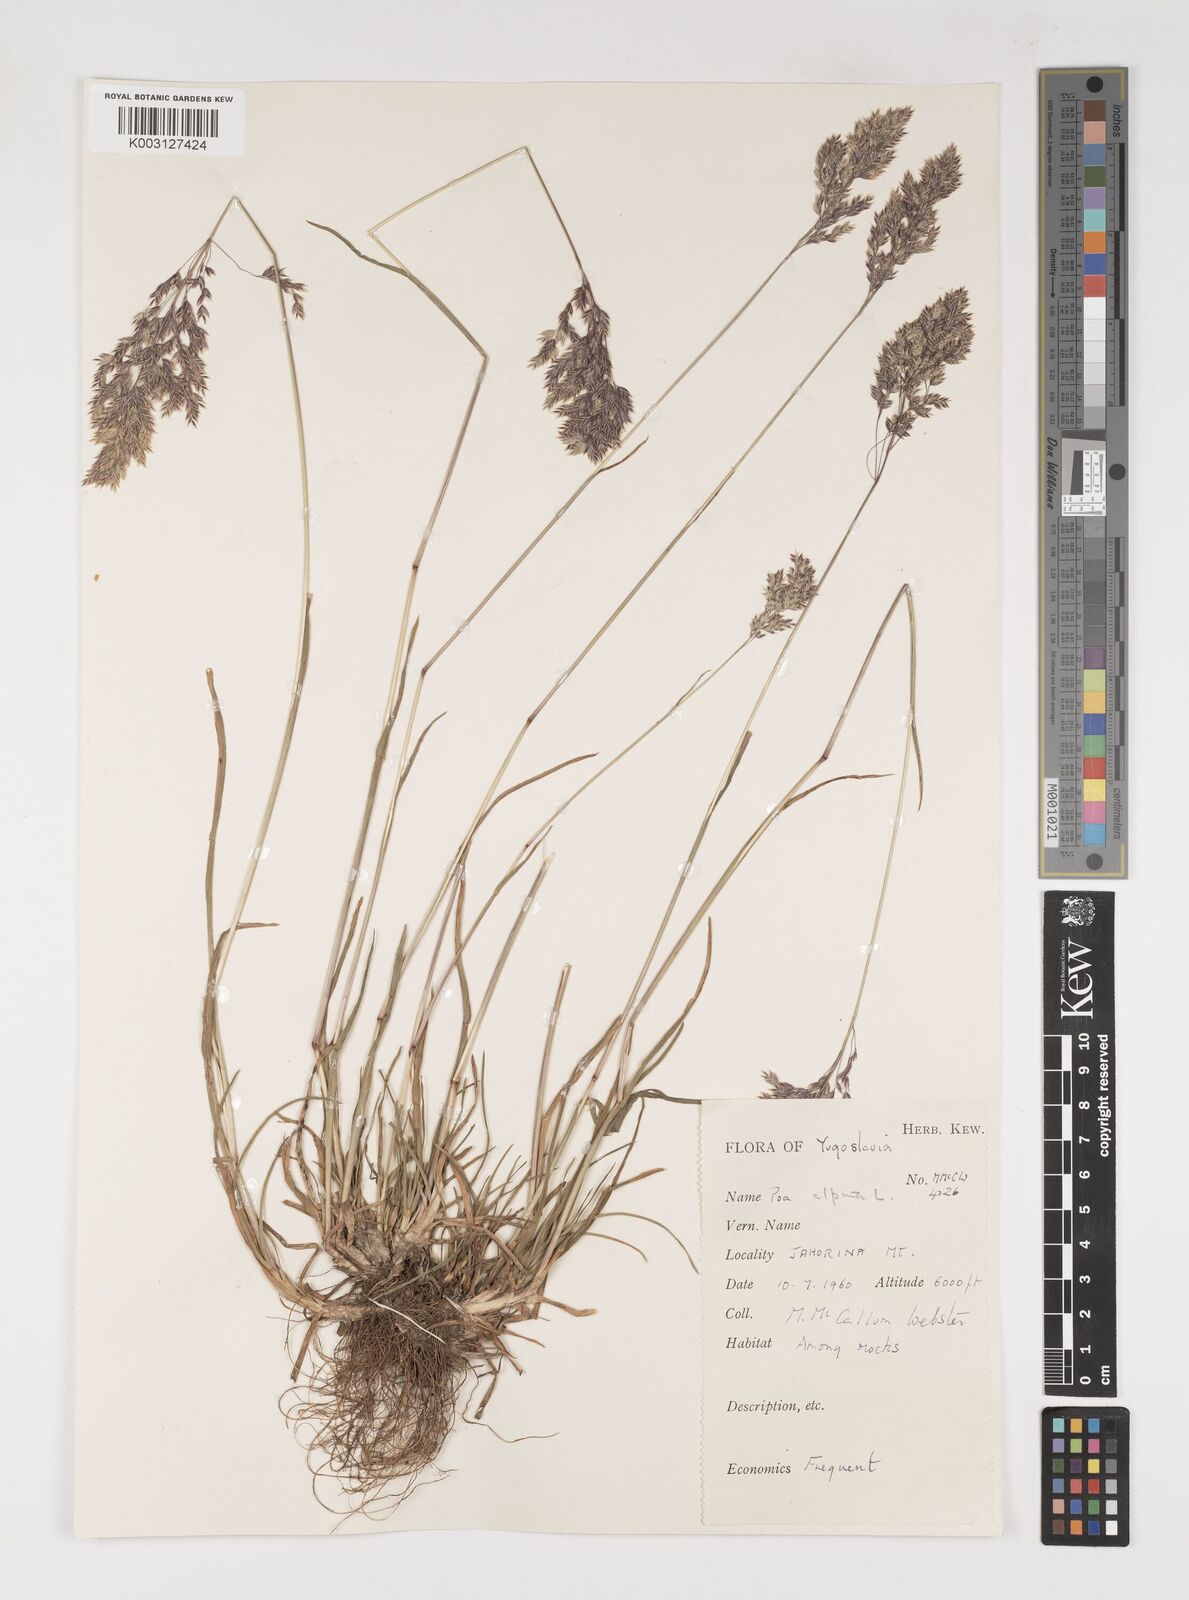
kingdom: Plantae
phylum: Tracheophyta
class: Liliopsida
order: Poales
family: Poaceae
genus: Poa
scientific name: Poa alpina
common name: Alpine bluegrass
